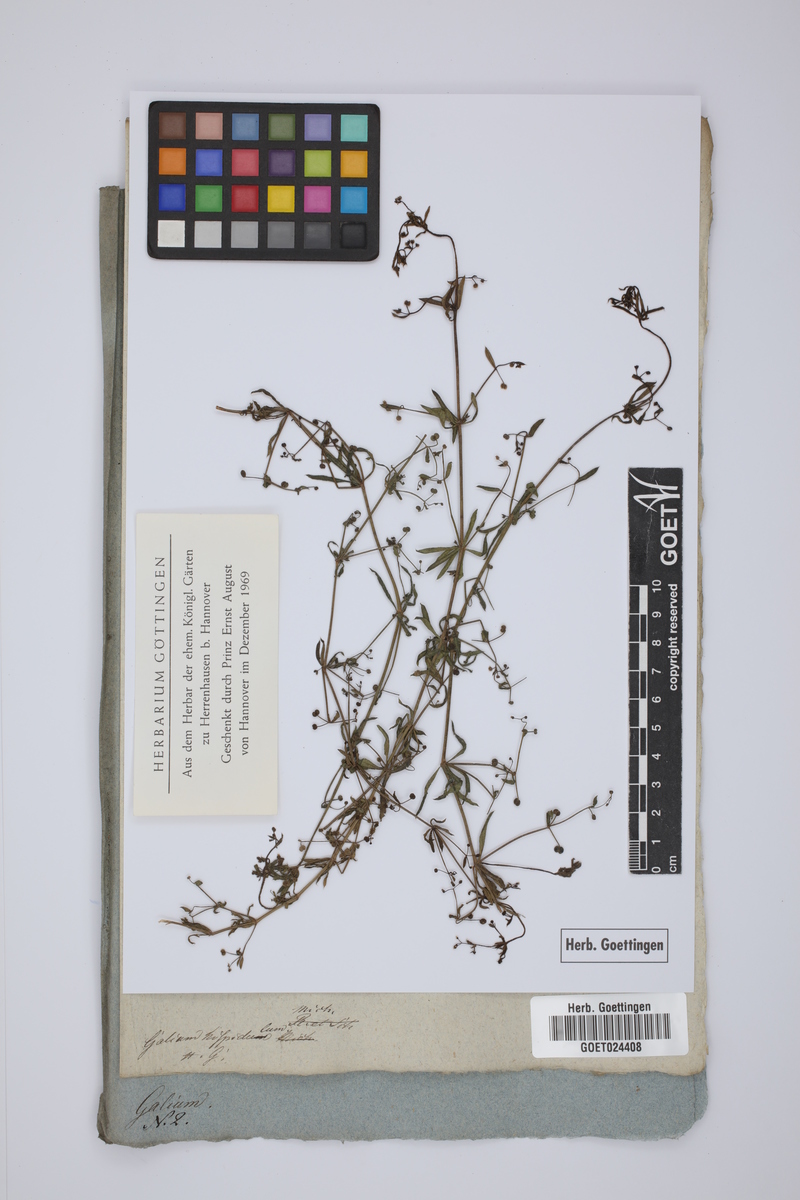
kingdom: Plantae
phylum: Tracheophyta
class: Magnoliopsida
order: Gentianales
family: Rubiaceae
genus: Galium
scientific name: Galium bermudense
